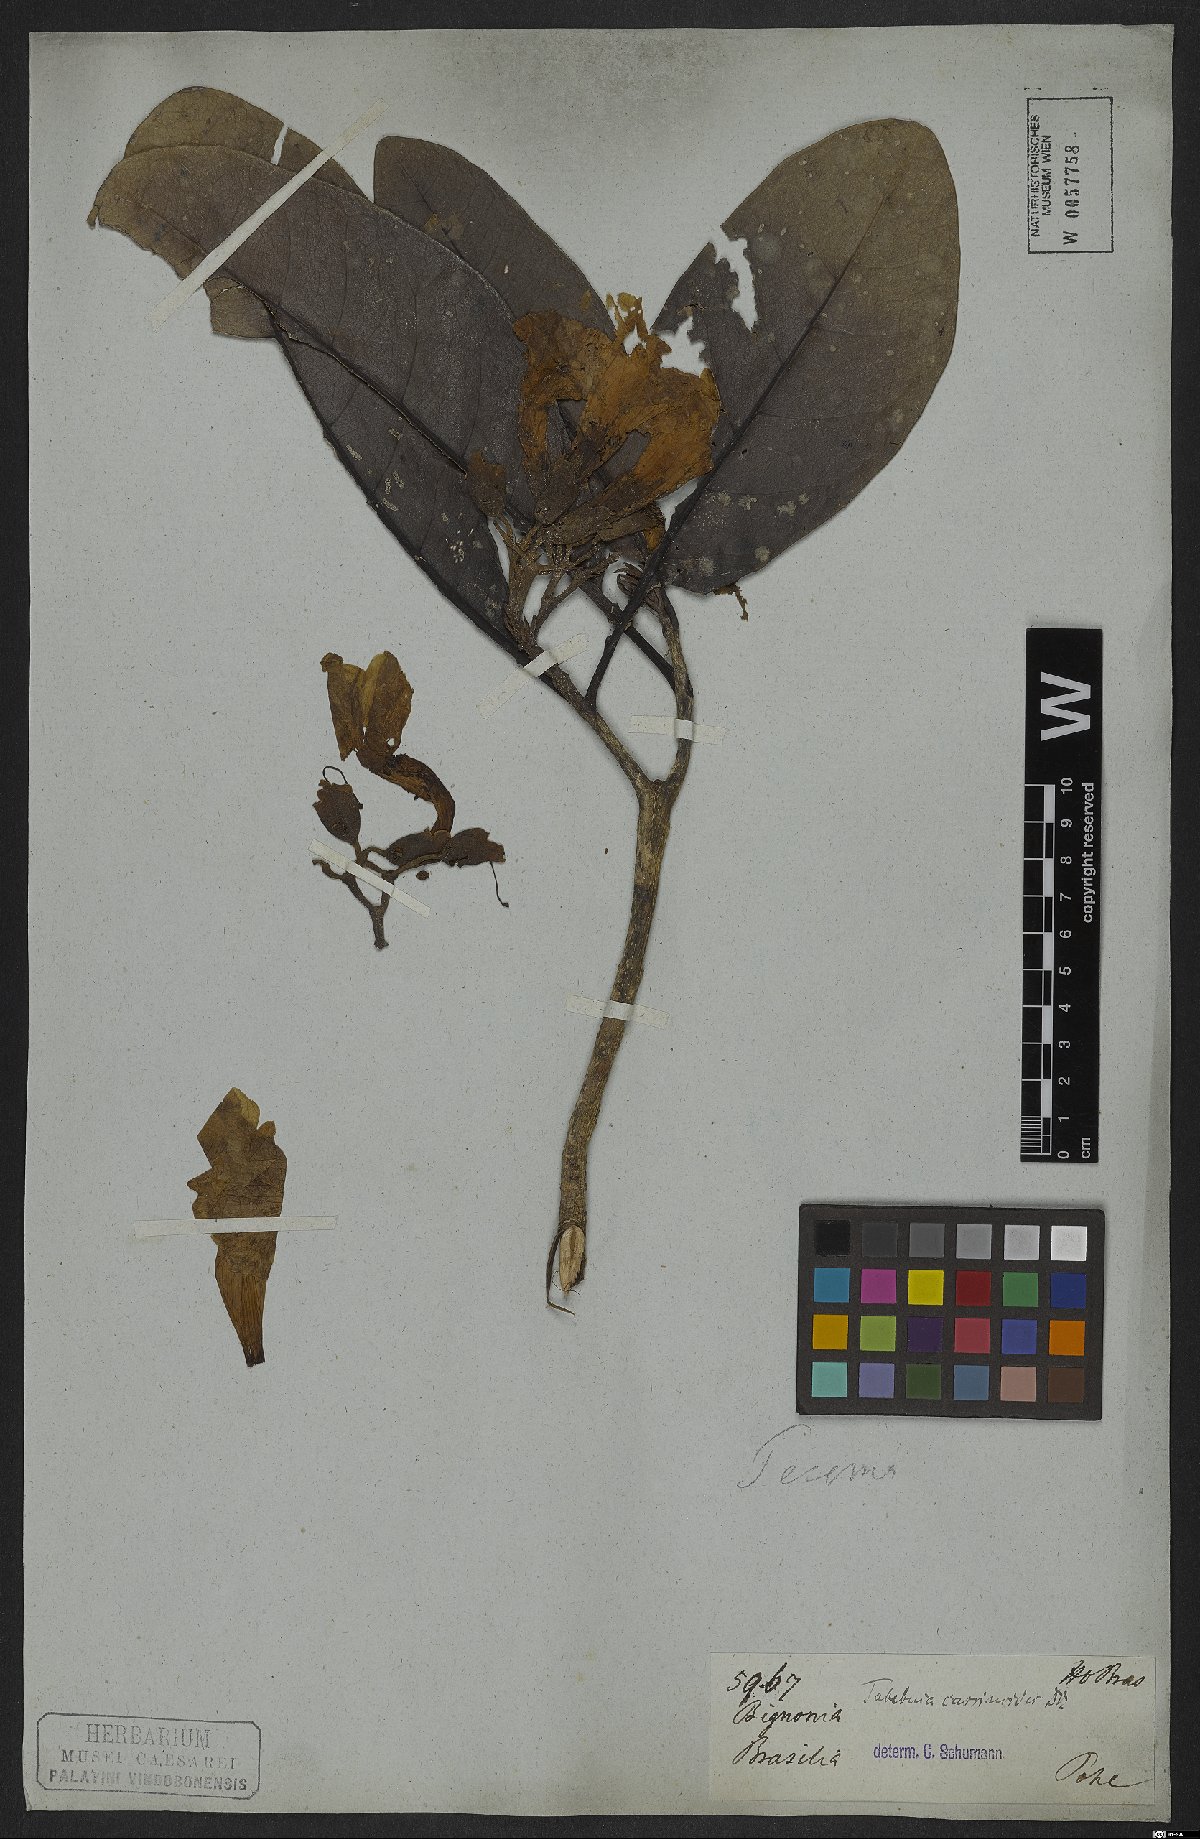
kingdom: Plantae
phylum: Tracheophyta
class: Magnoliopsida
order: Lamiales
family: Bignoniaceae
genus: Tabebuia
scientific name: Tabebuia cassinoides
